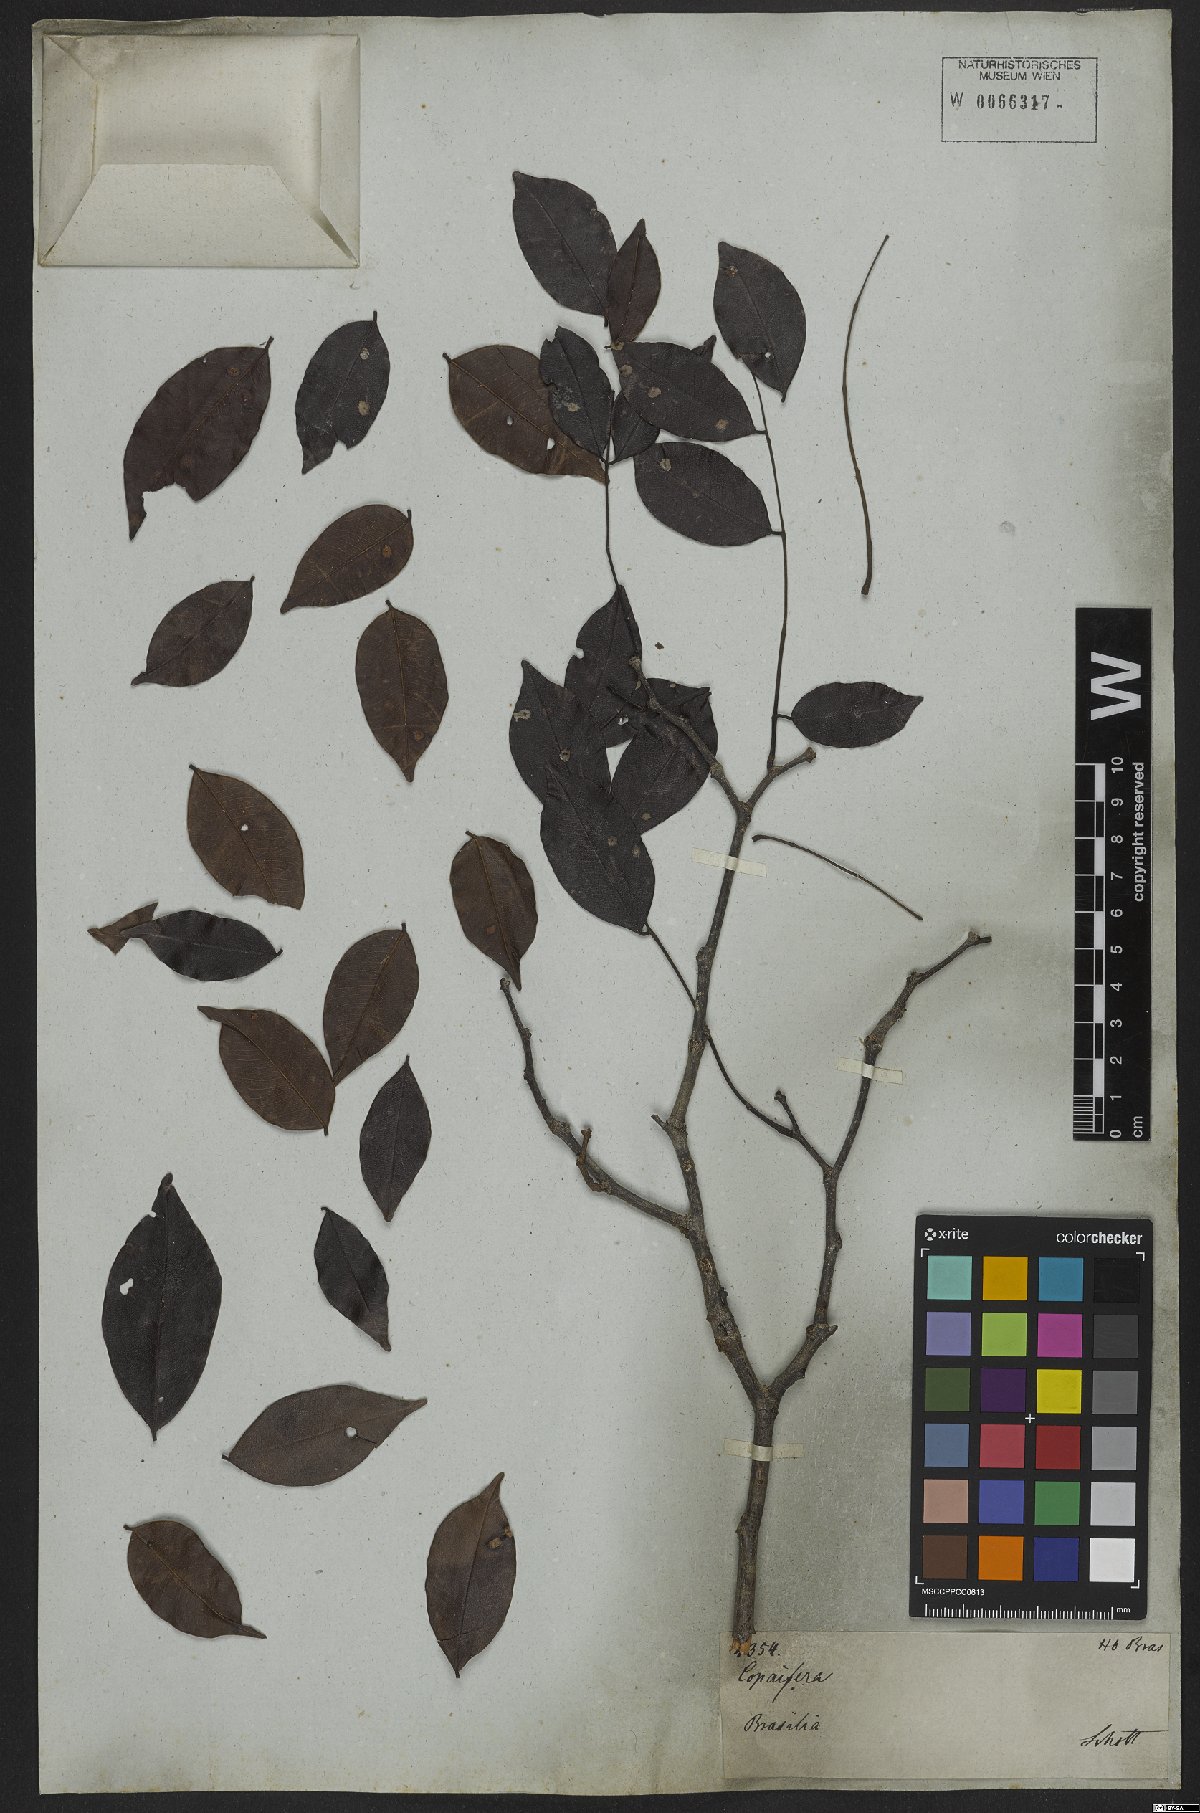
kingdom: Plantae
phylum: Tracheophyta
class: Magnoliopsida
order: Fabales
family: Fabaceae
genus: Copaifera
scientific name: Copaifera
